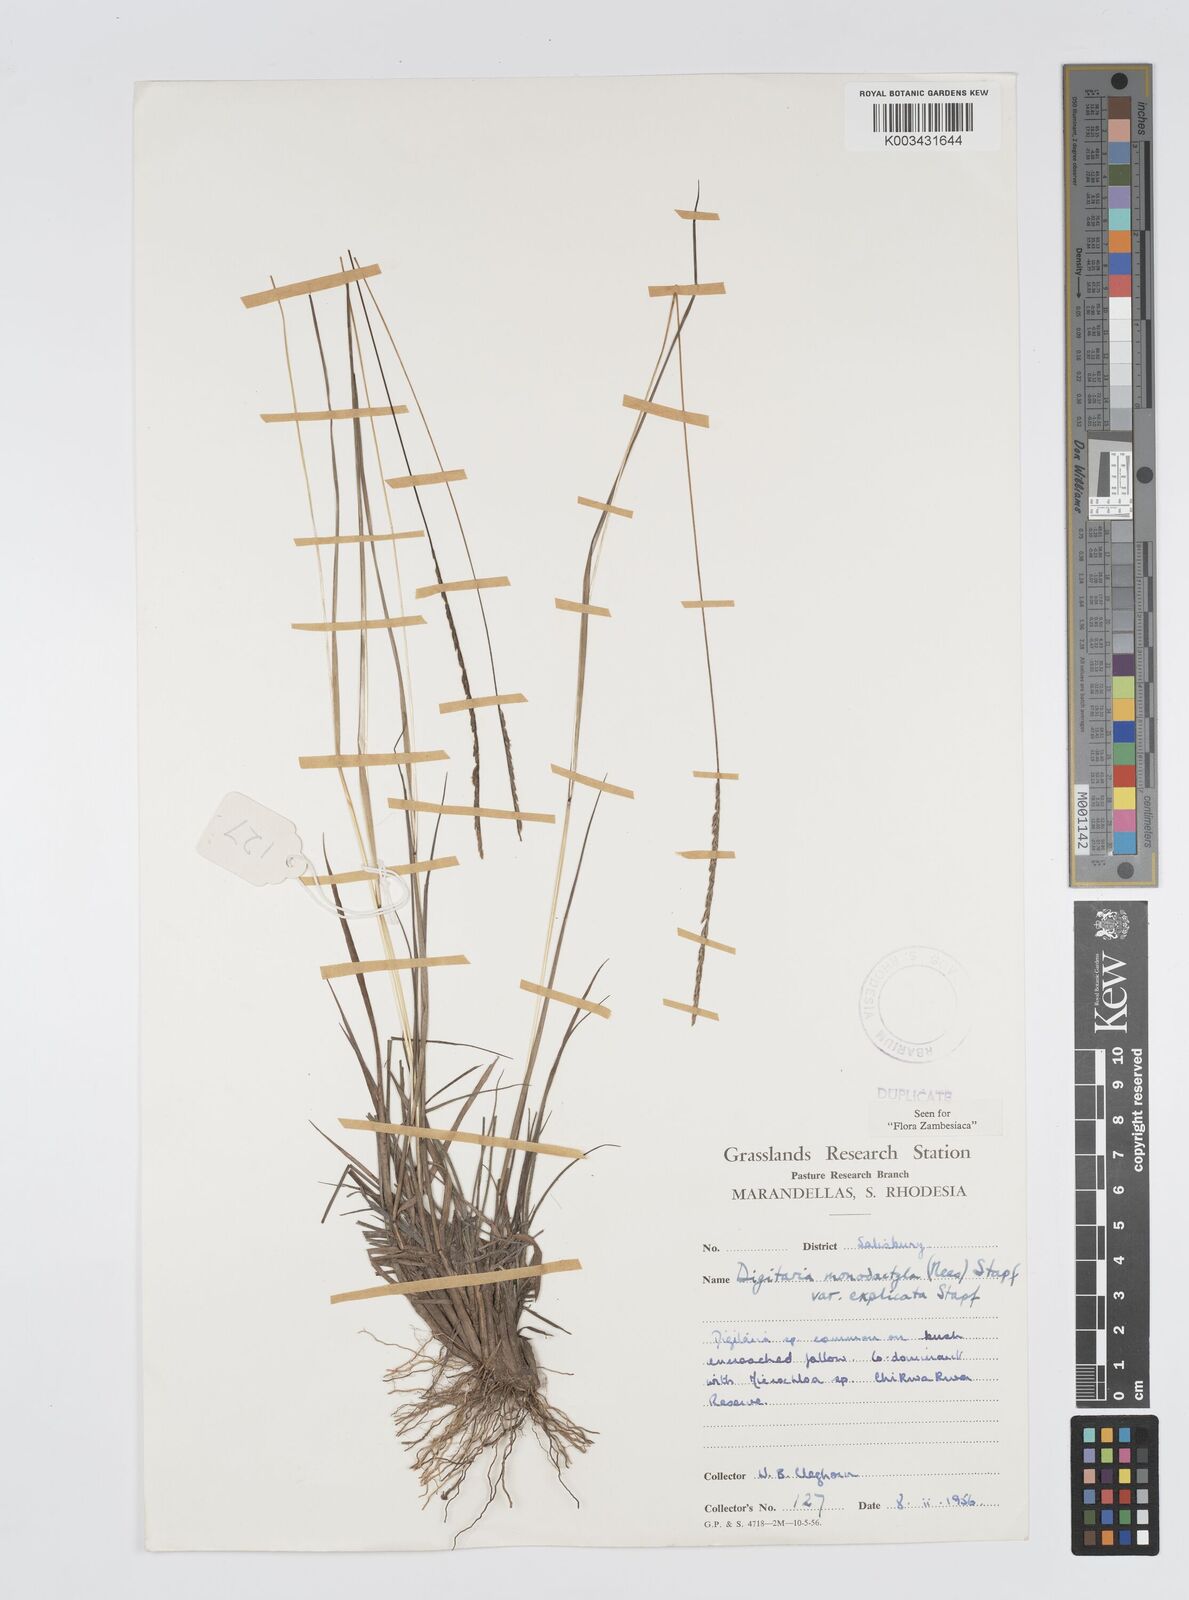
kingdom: Plantae
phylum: Tracheophyta
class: Liliopsida
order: Poales
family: Poaceae
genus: Digitaria
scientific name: Digitaria monodactyla
